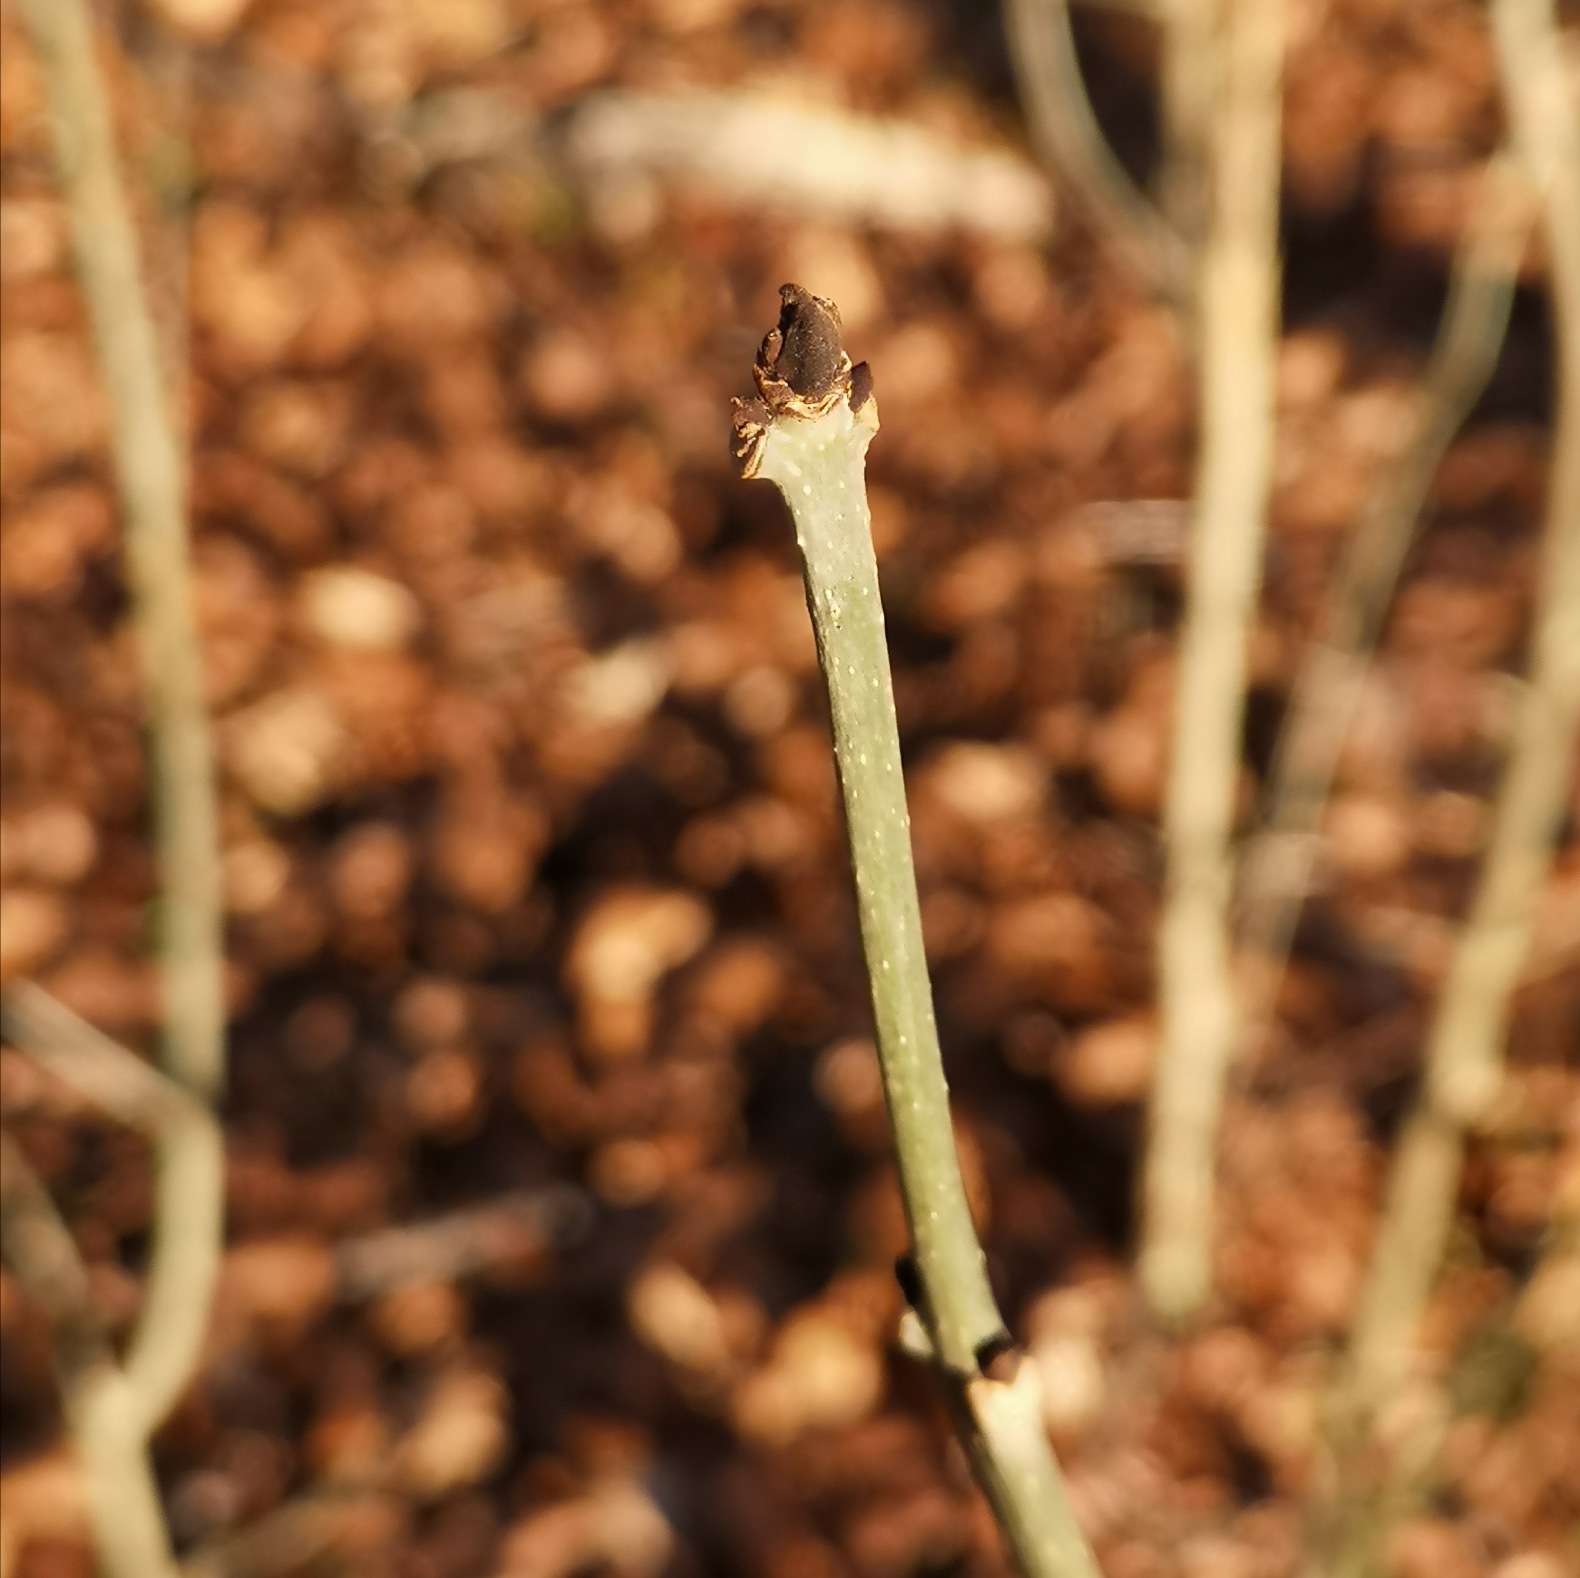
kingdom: Plantae
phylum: Tracheophyta
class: Magnoliopsida
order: Lamiales
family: Oleaceae
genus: Fraxinus
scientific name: Fraxinus excelsior
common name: Ask
